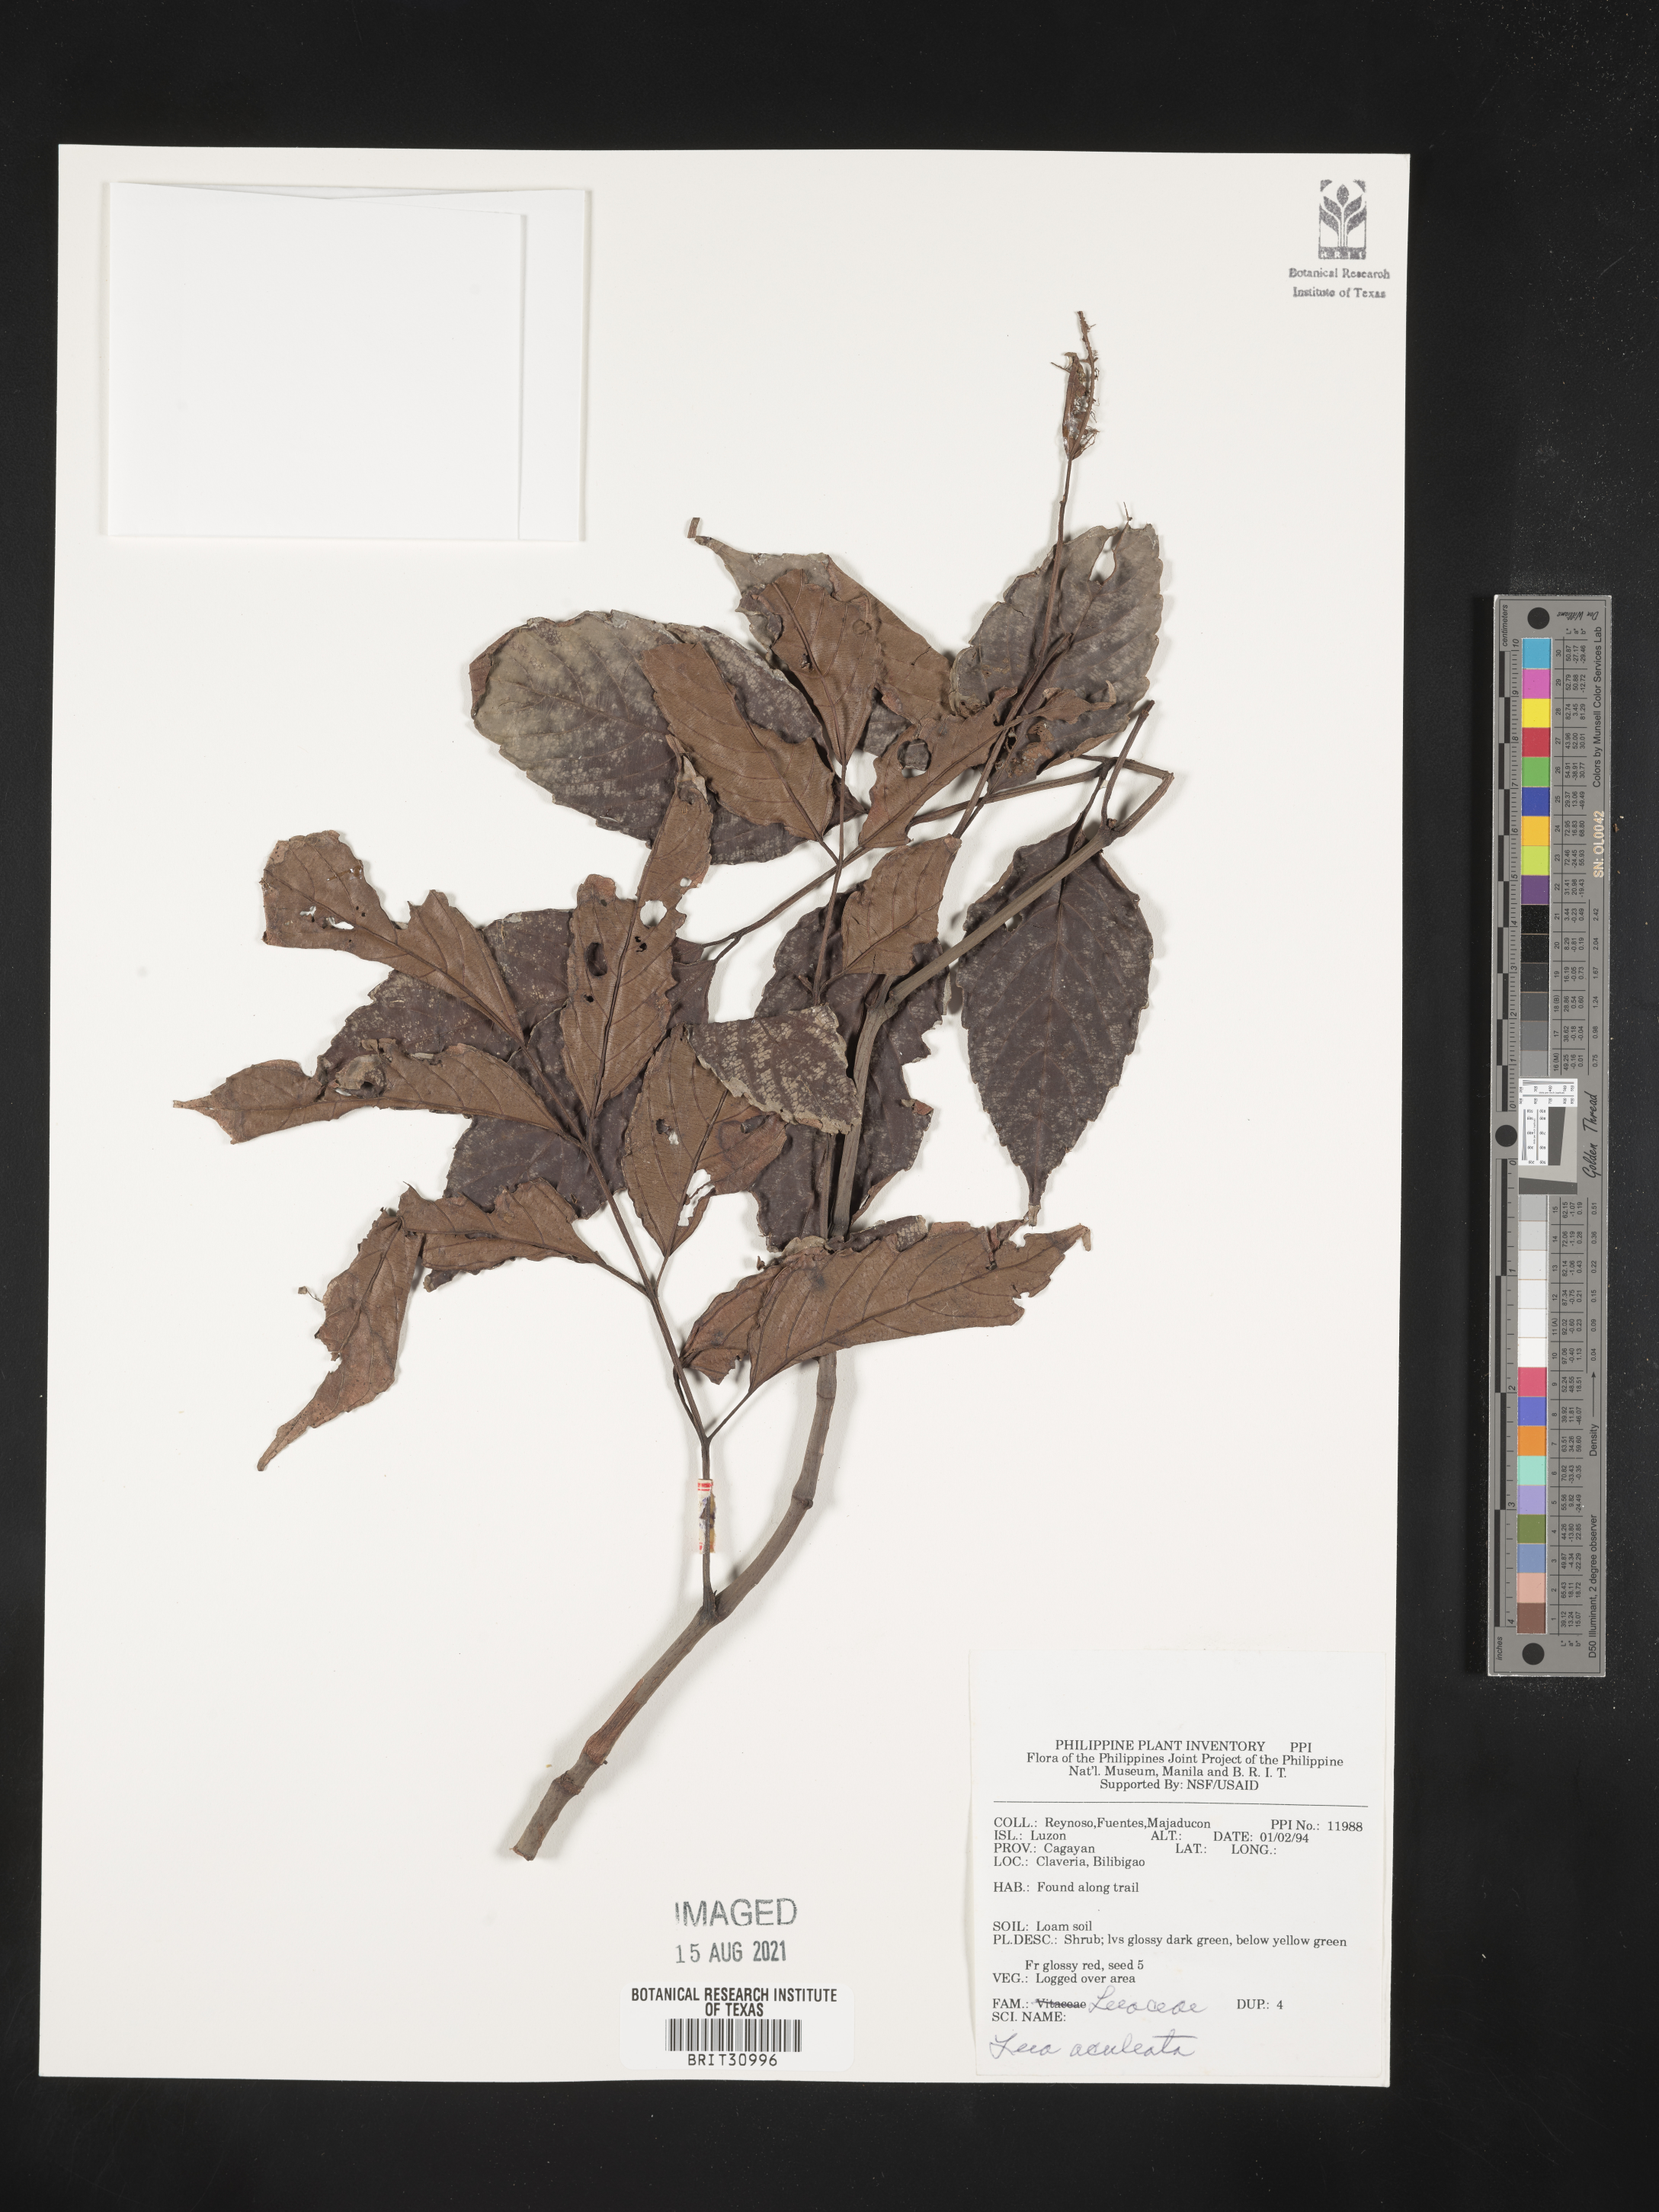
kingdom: Plantae
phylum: Tracheophyta
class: Magnoliopsida
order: Vitales
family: Vitaceae
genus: Leea
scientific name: Leea aculeata
